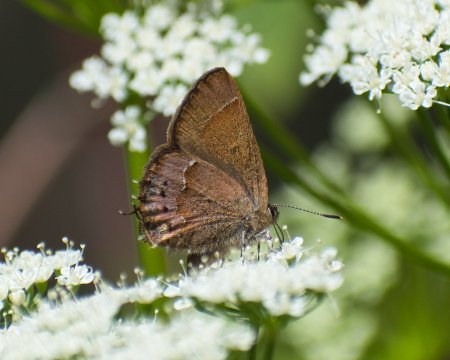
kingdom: Animalia
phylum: Arthropoda
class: Insecta
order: Lepidoptera
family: Lycaenidae
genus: Mitoura
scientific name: Mitoura gryneus
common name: Juniper Hairstreak
